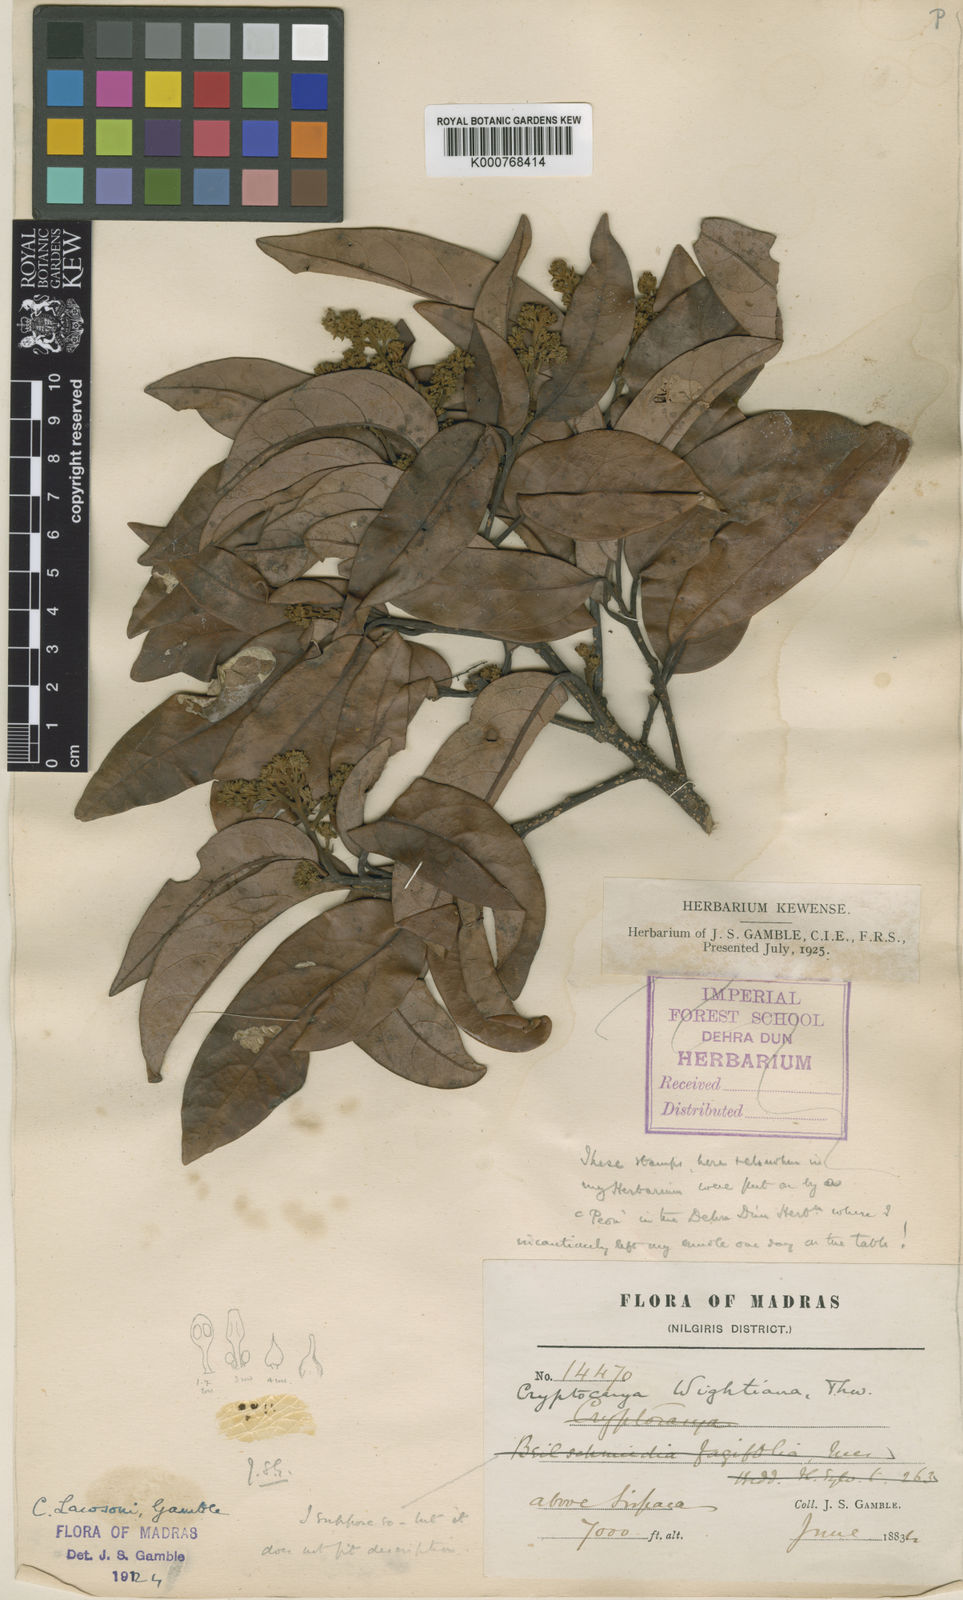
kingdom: Plantae
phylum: Tracheophyta
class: Magnoliopsida
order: Laurales
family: Lauraceae
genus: Cryptocarya
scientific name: Cryptocarya lawsonii
